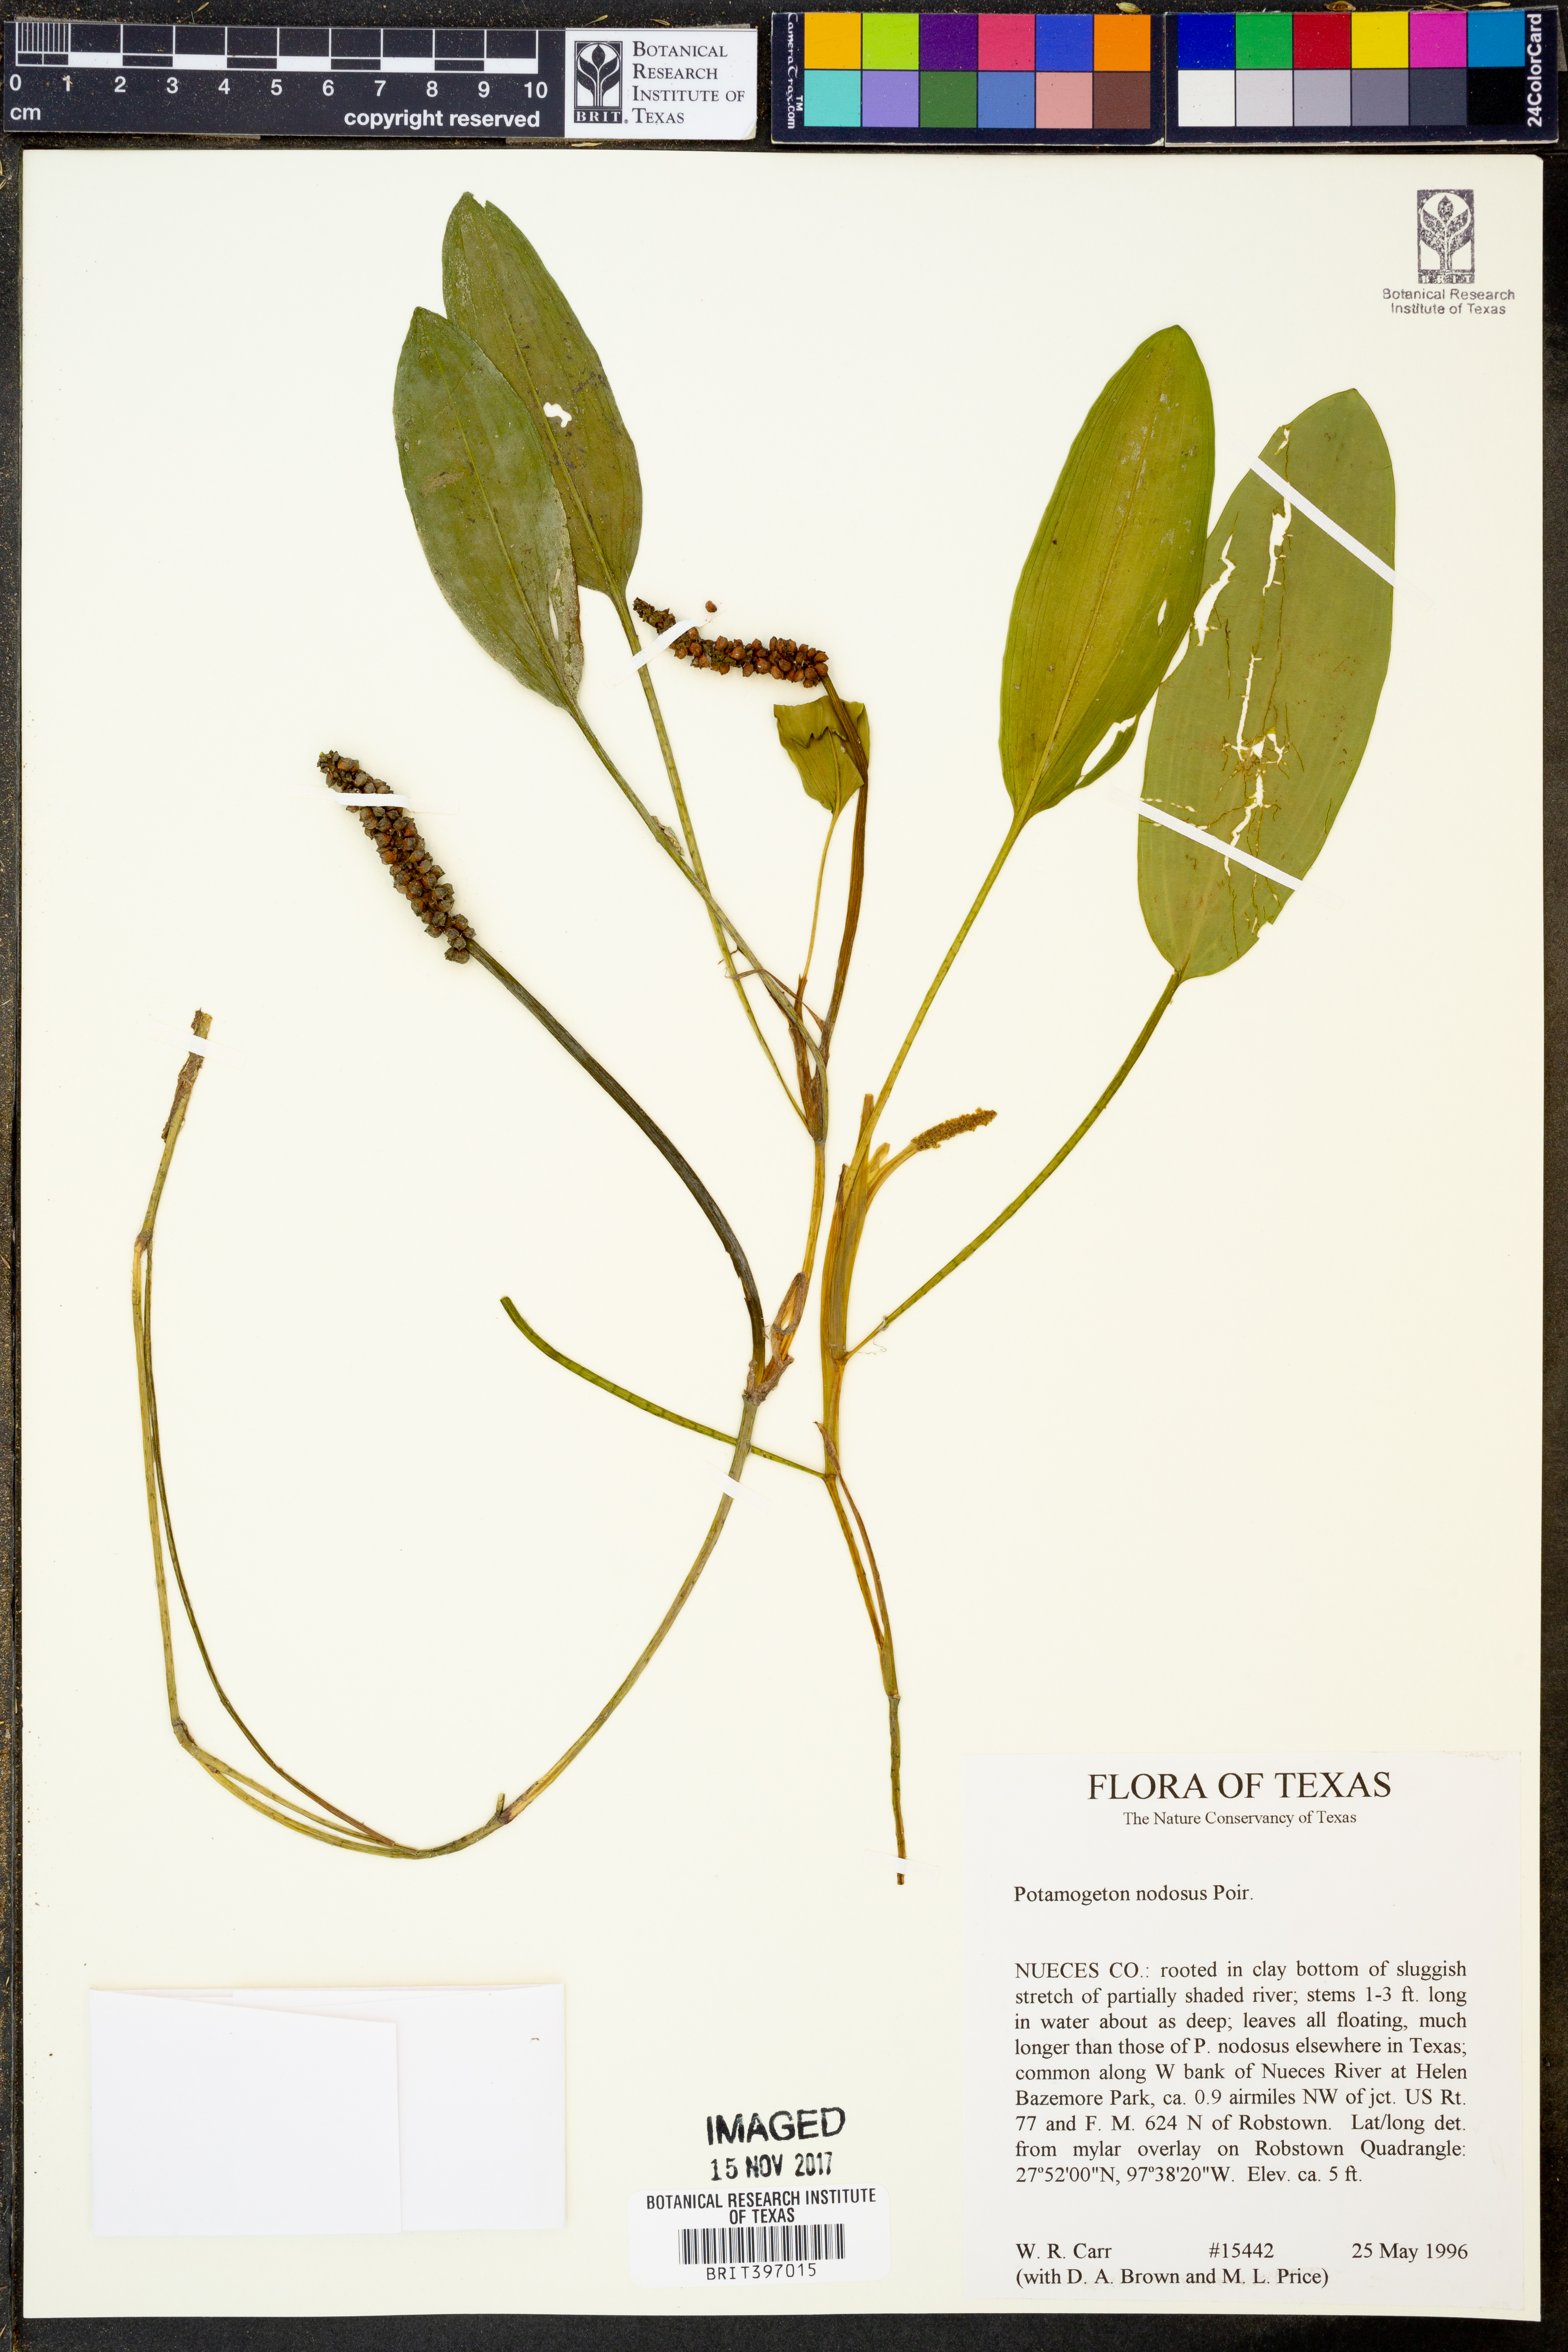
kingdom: Plantae
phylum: Tracheophyta
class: Liliopsida
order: Alismatales
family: Potamogetonaceae
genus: Potamogeton
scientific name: Potamogeton nodosus
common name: Loddon pondweed
